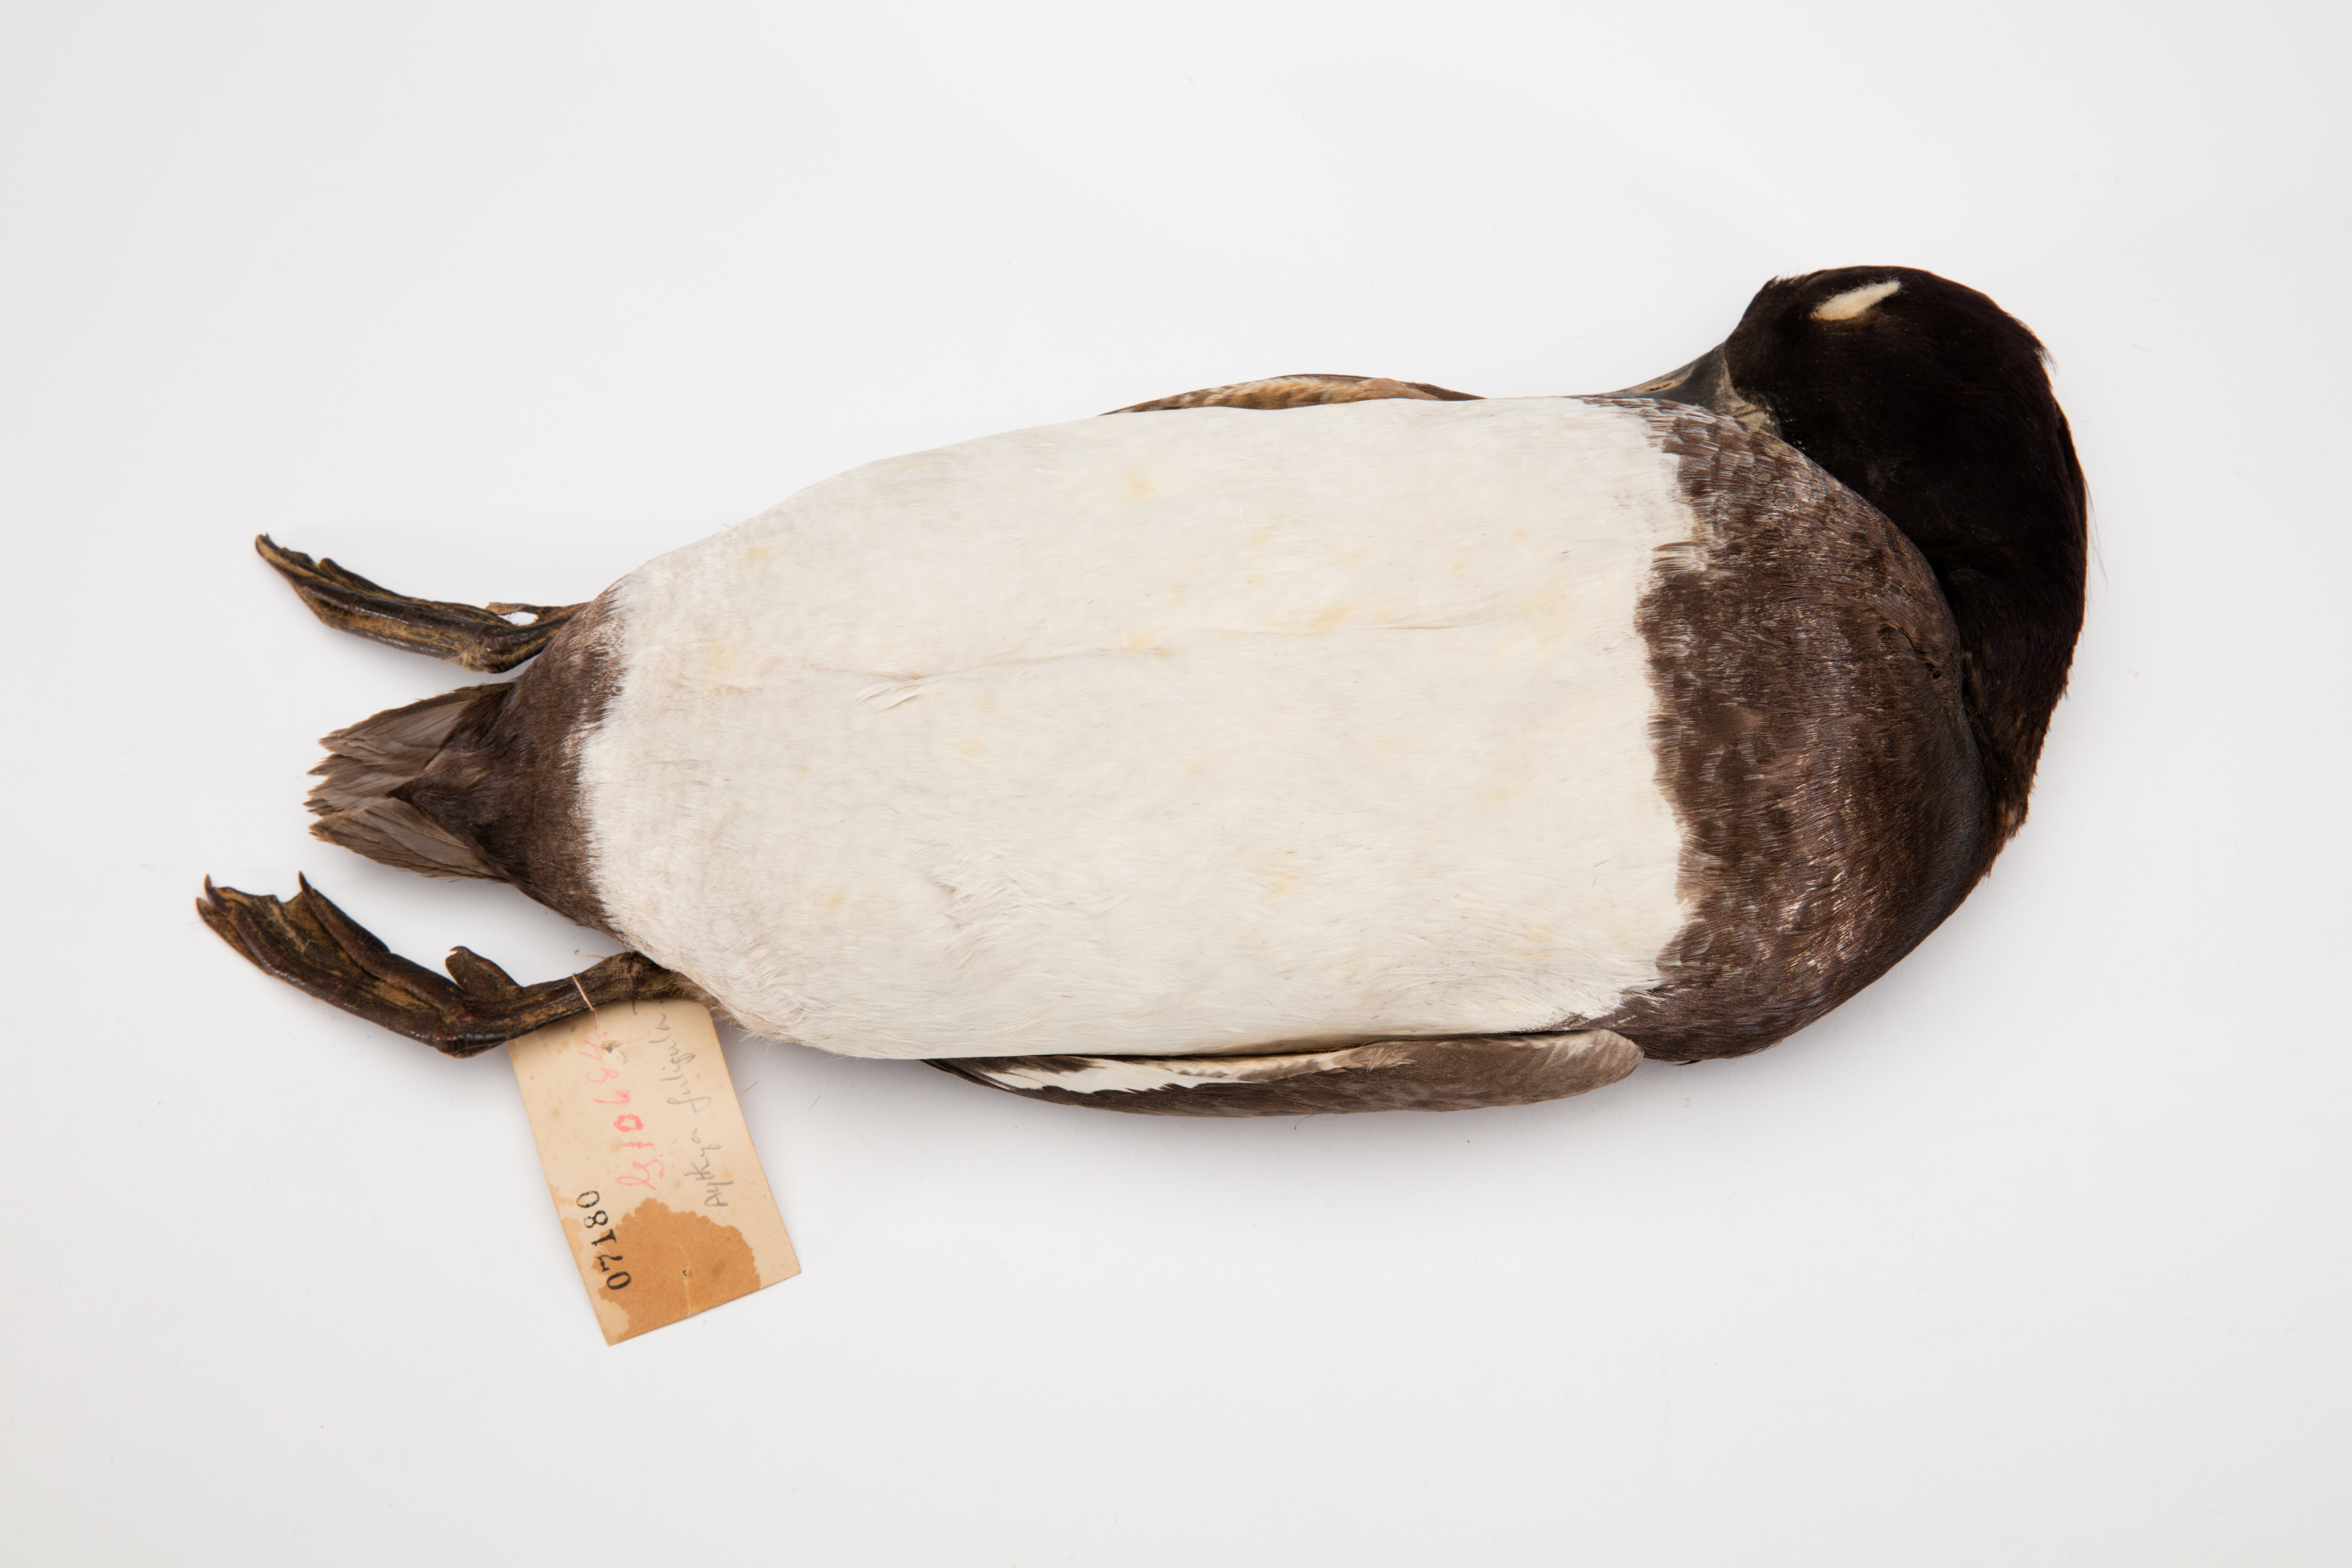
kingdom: Animalia
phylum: Chordata
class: Aves
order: Anseriformes
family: Anatidae
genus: Aythya
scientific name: Aythya fuligula
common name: Tufted duck
